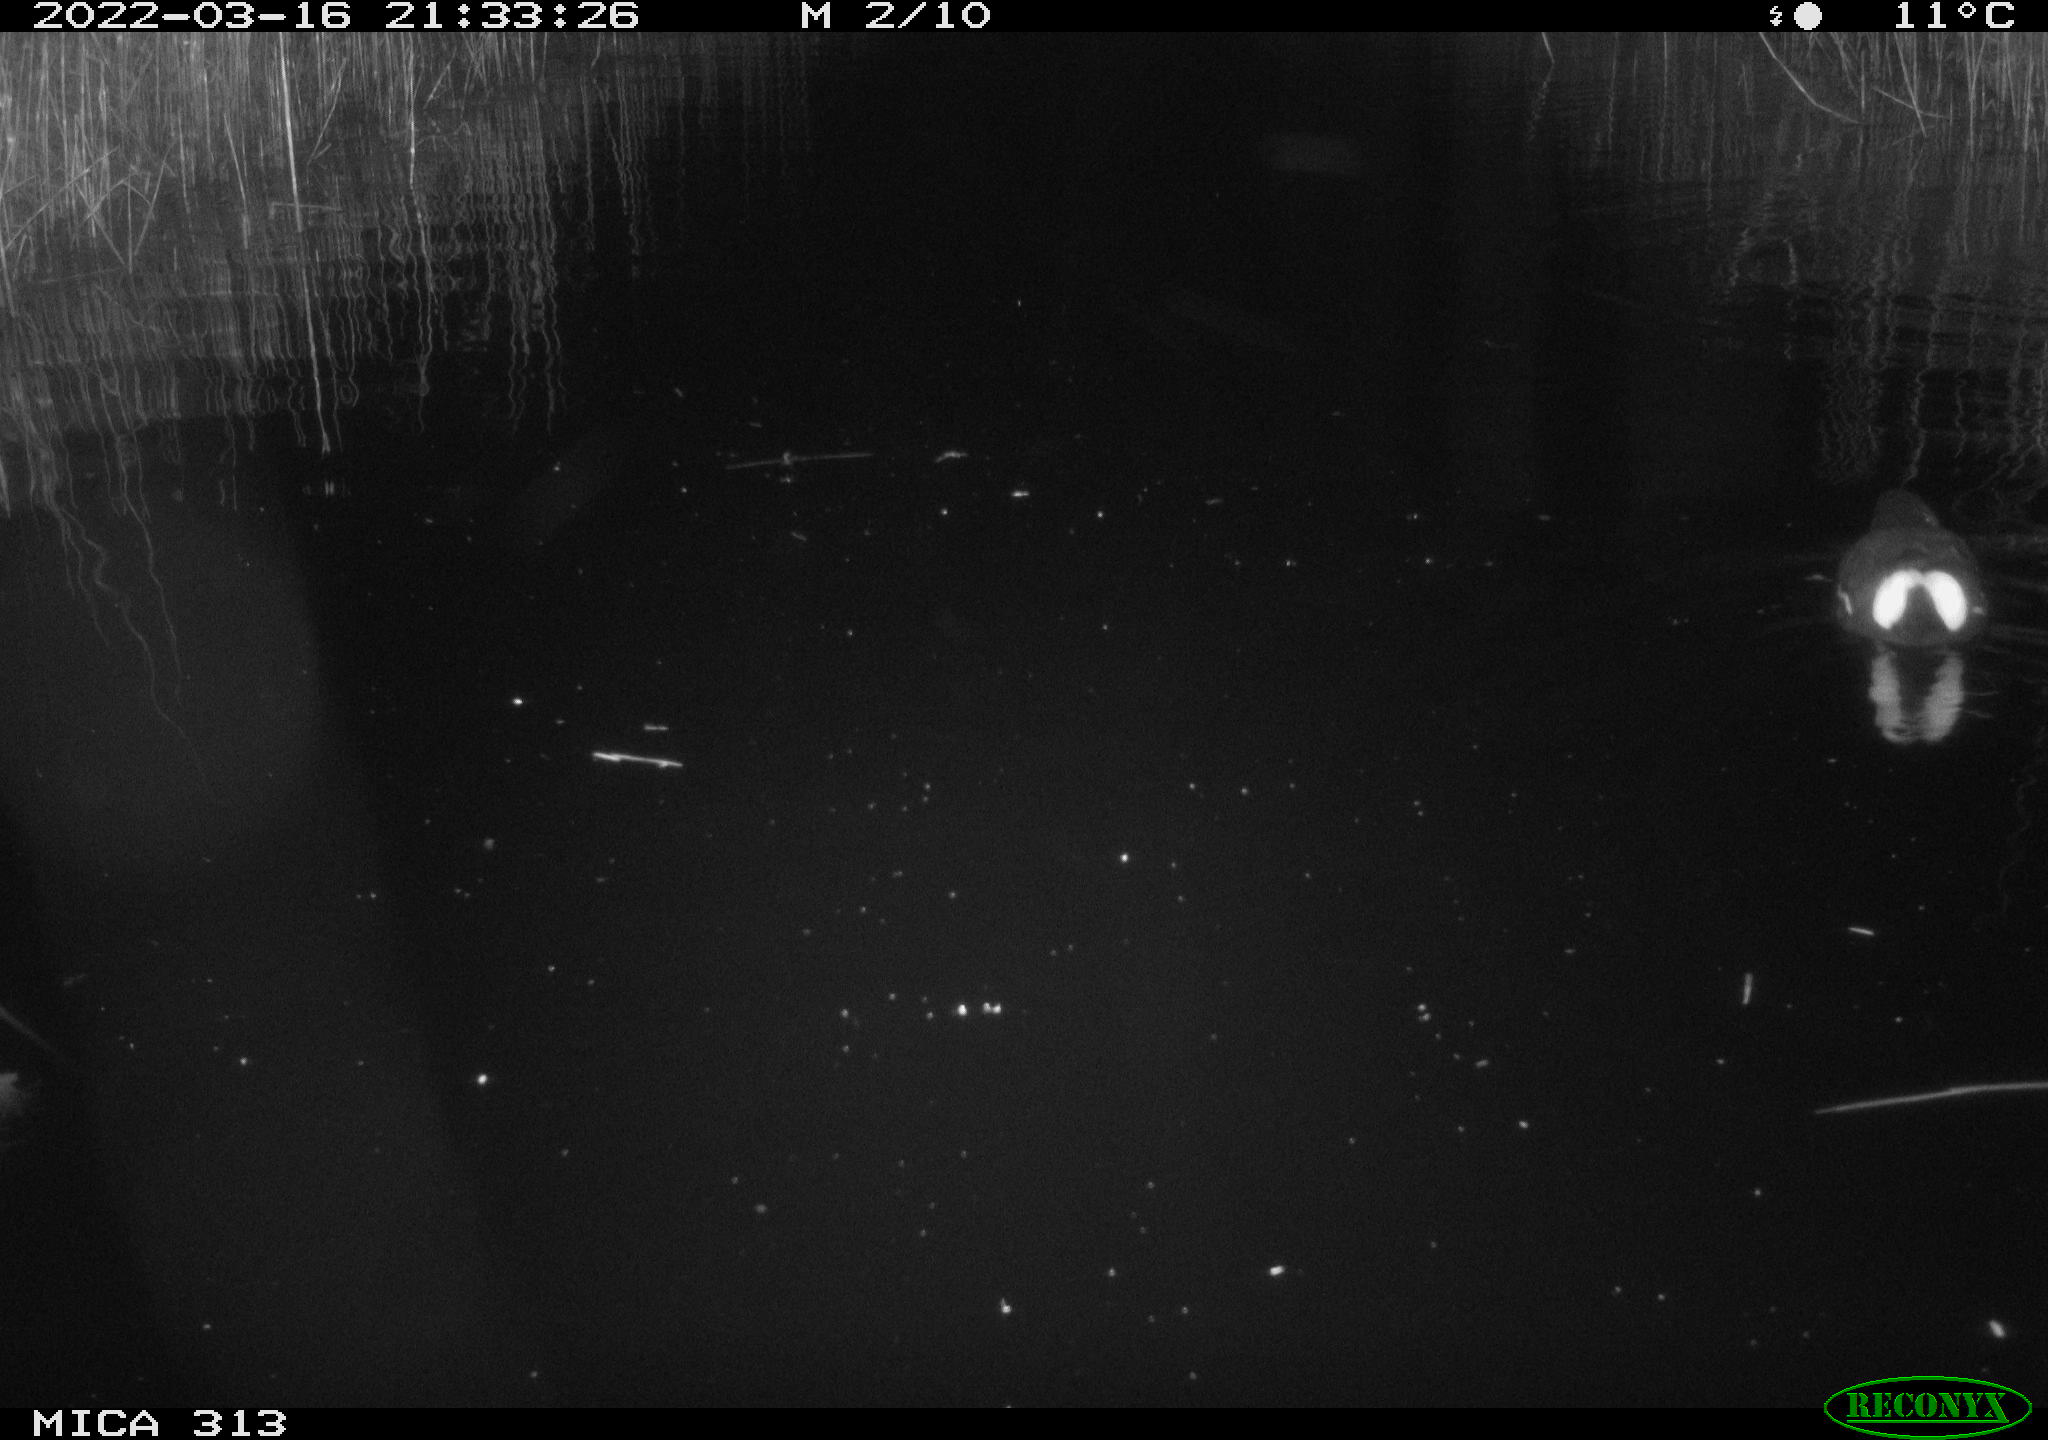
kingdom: Animalia
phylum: Chordata
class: Aves
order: Gruiformes
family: Rallidae
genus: Gallinula
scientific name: Gallinula chloropus
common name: Common moorhen
